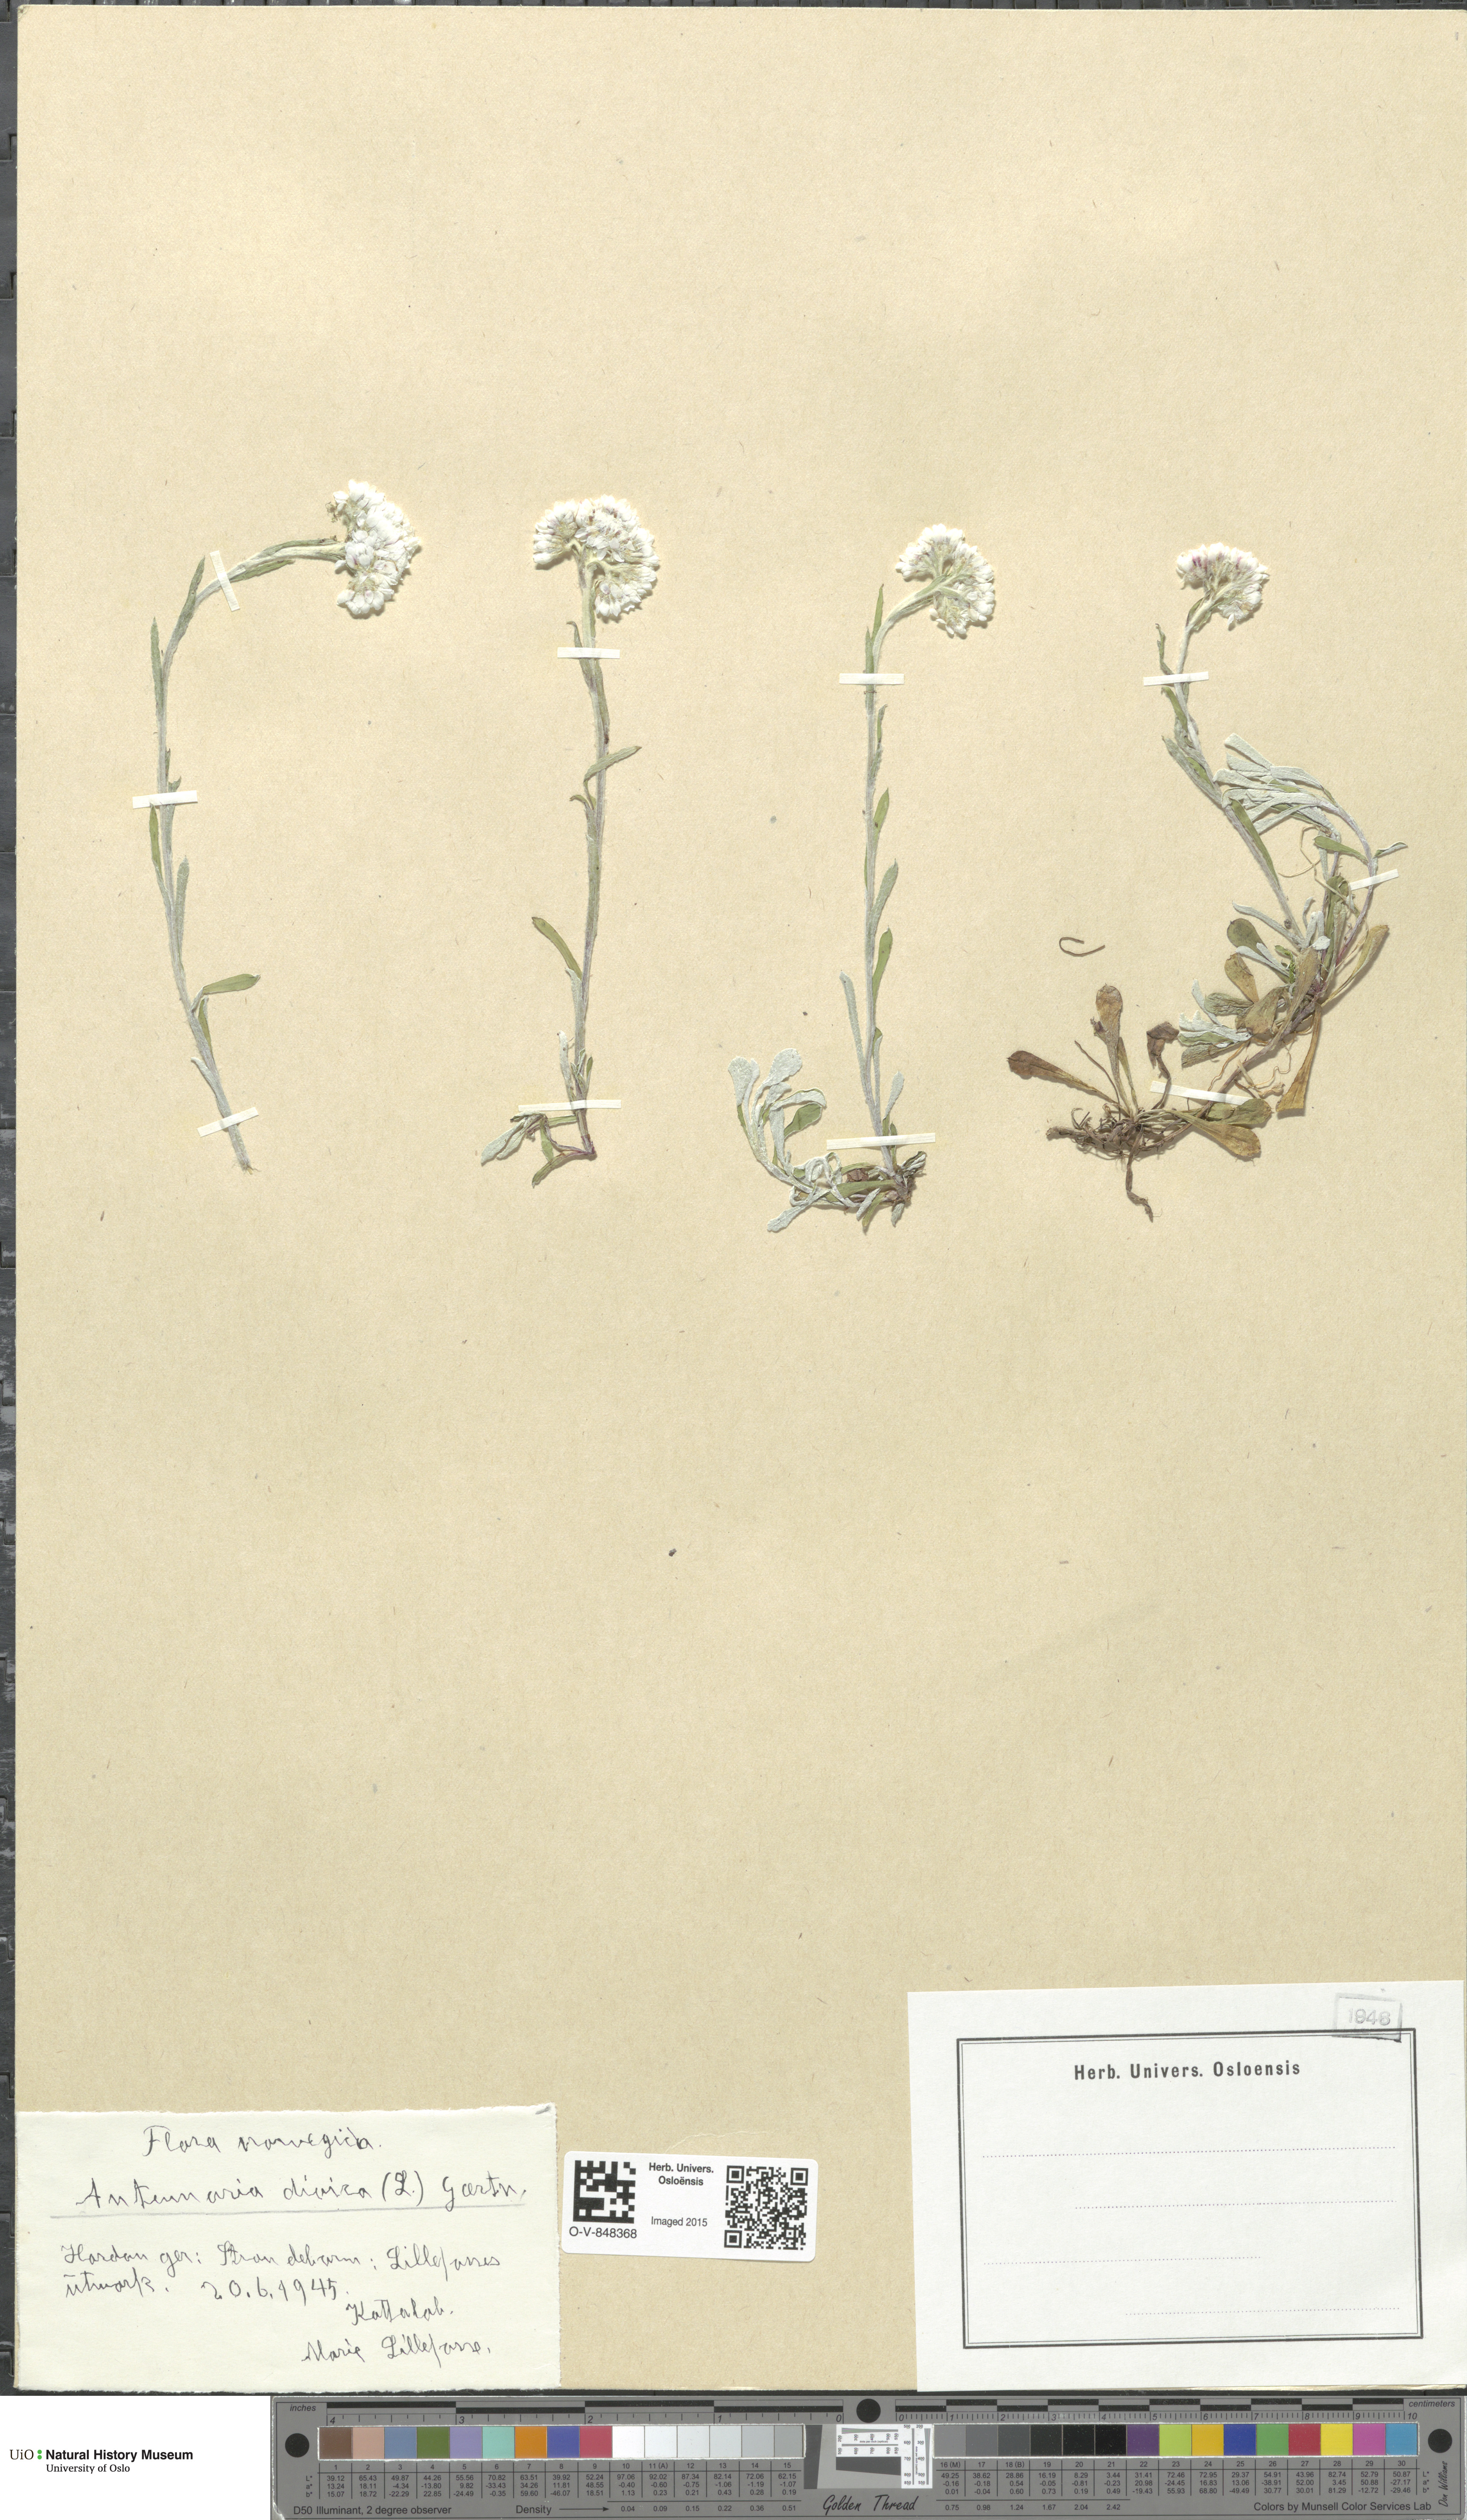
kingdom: Plantae
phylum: Tracheophyta
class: Magnoliopsida
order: Asterales
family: Asteraceae
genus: Antennaria
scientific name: Antennaria dioica
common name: Mountain everlasting
